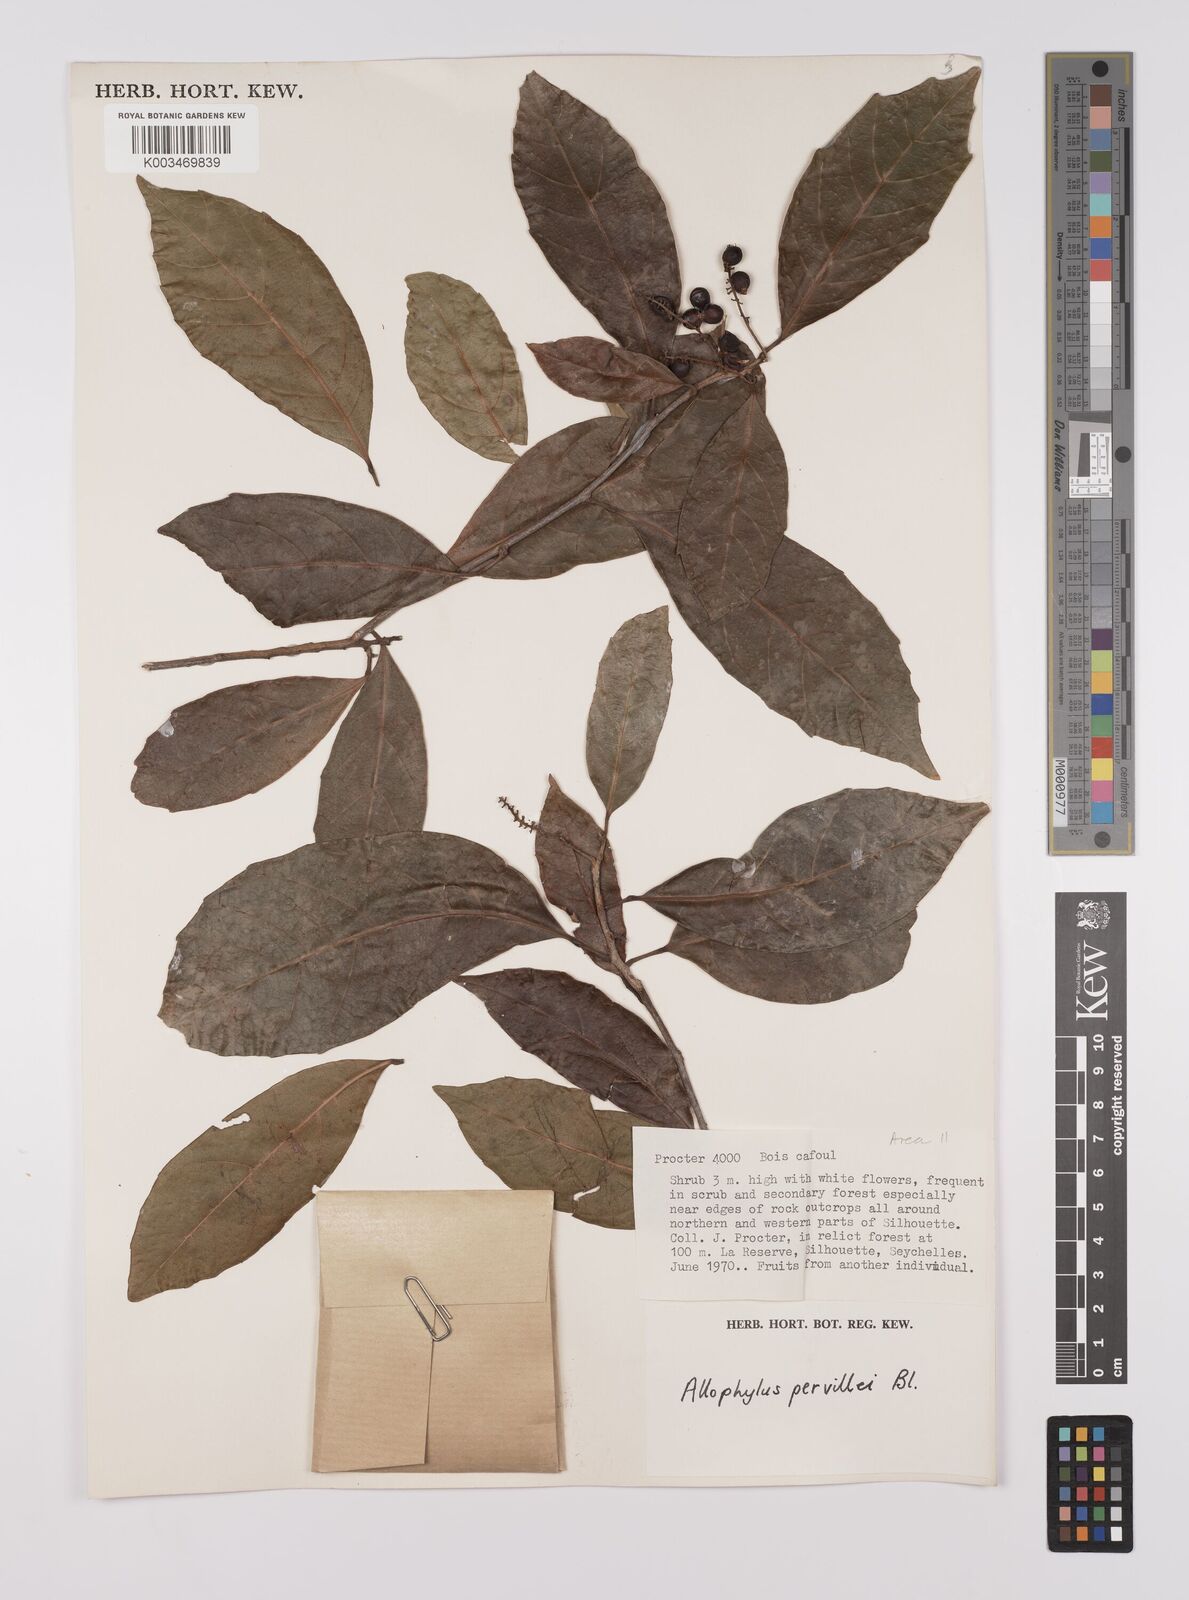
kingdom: Plantae
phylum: Tracheophyta
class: Magnoliopsida
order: Sapindales
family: Sapindaceae
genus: Allophylus
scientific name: Allophylus pervillei
